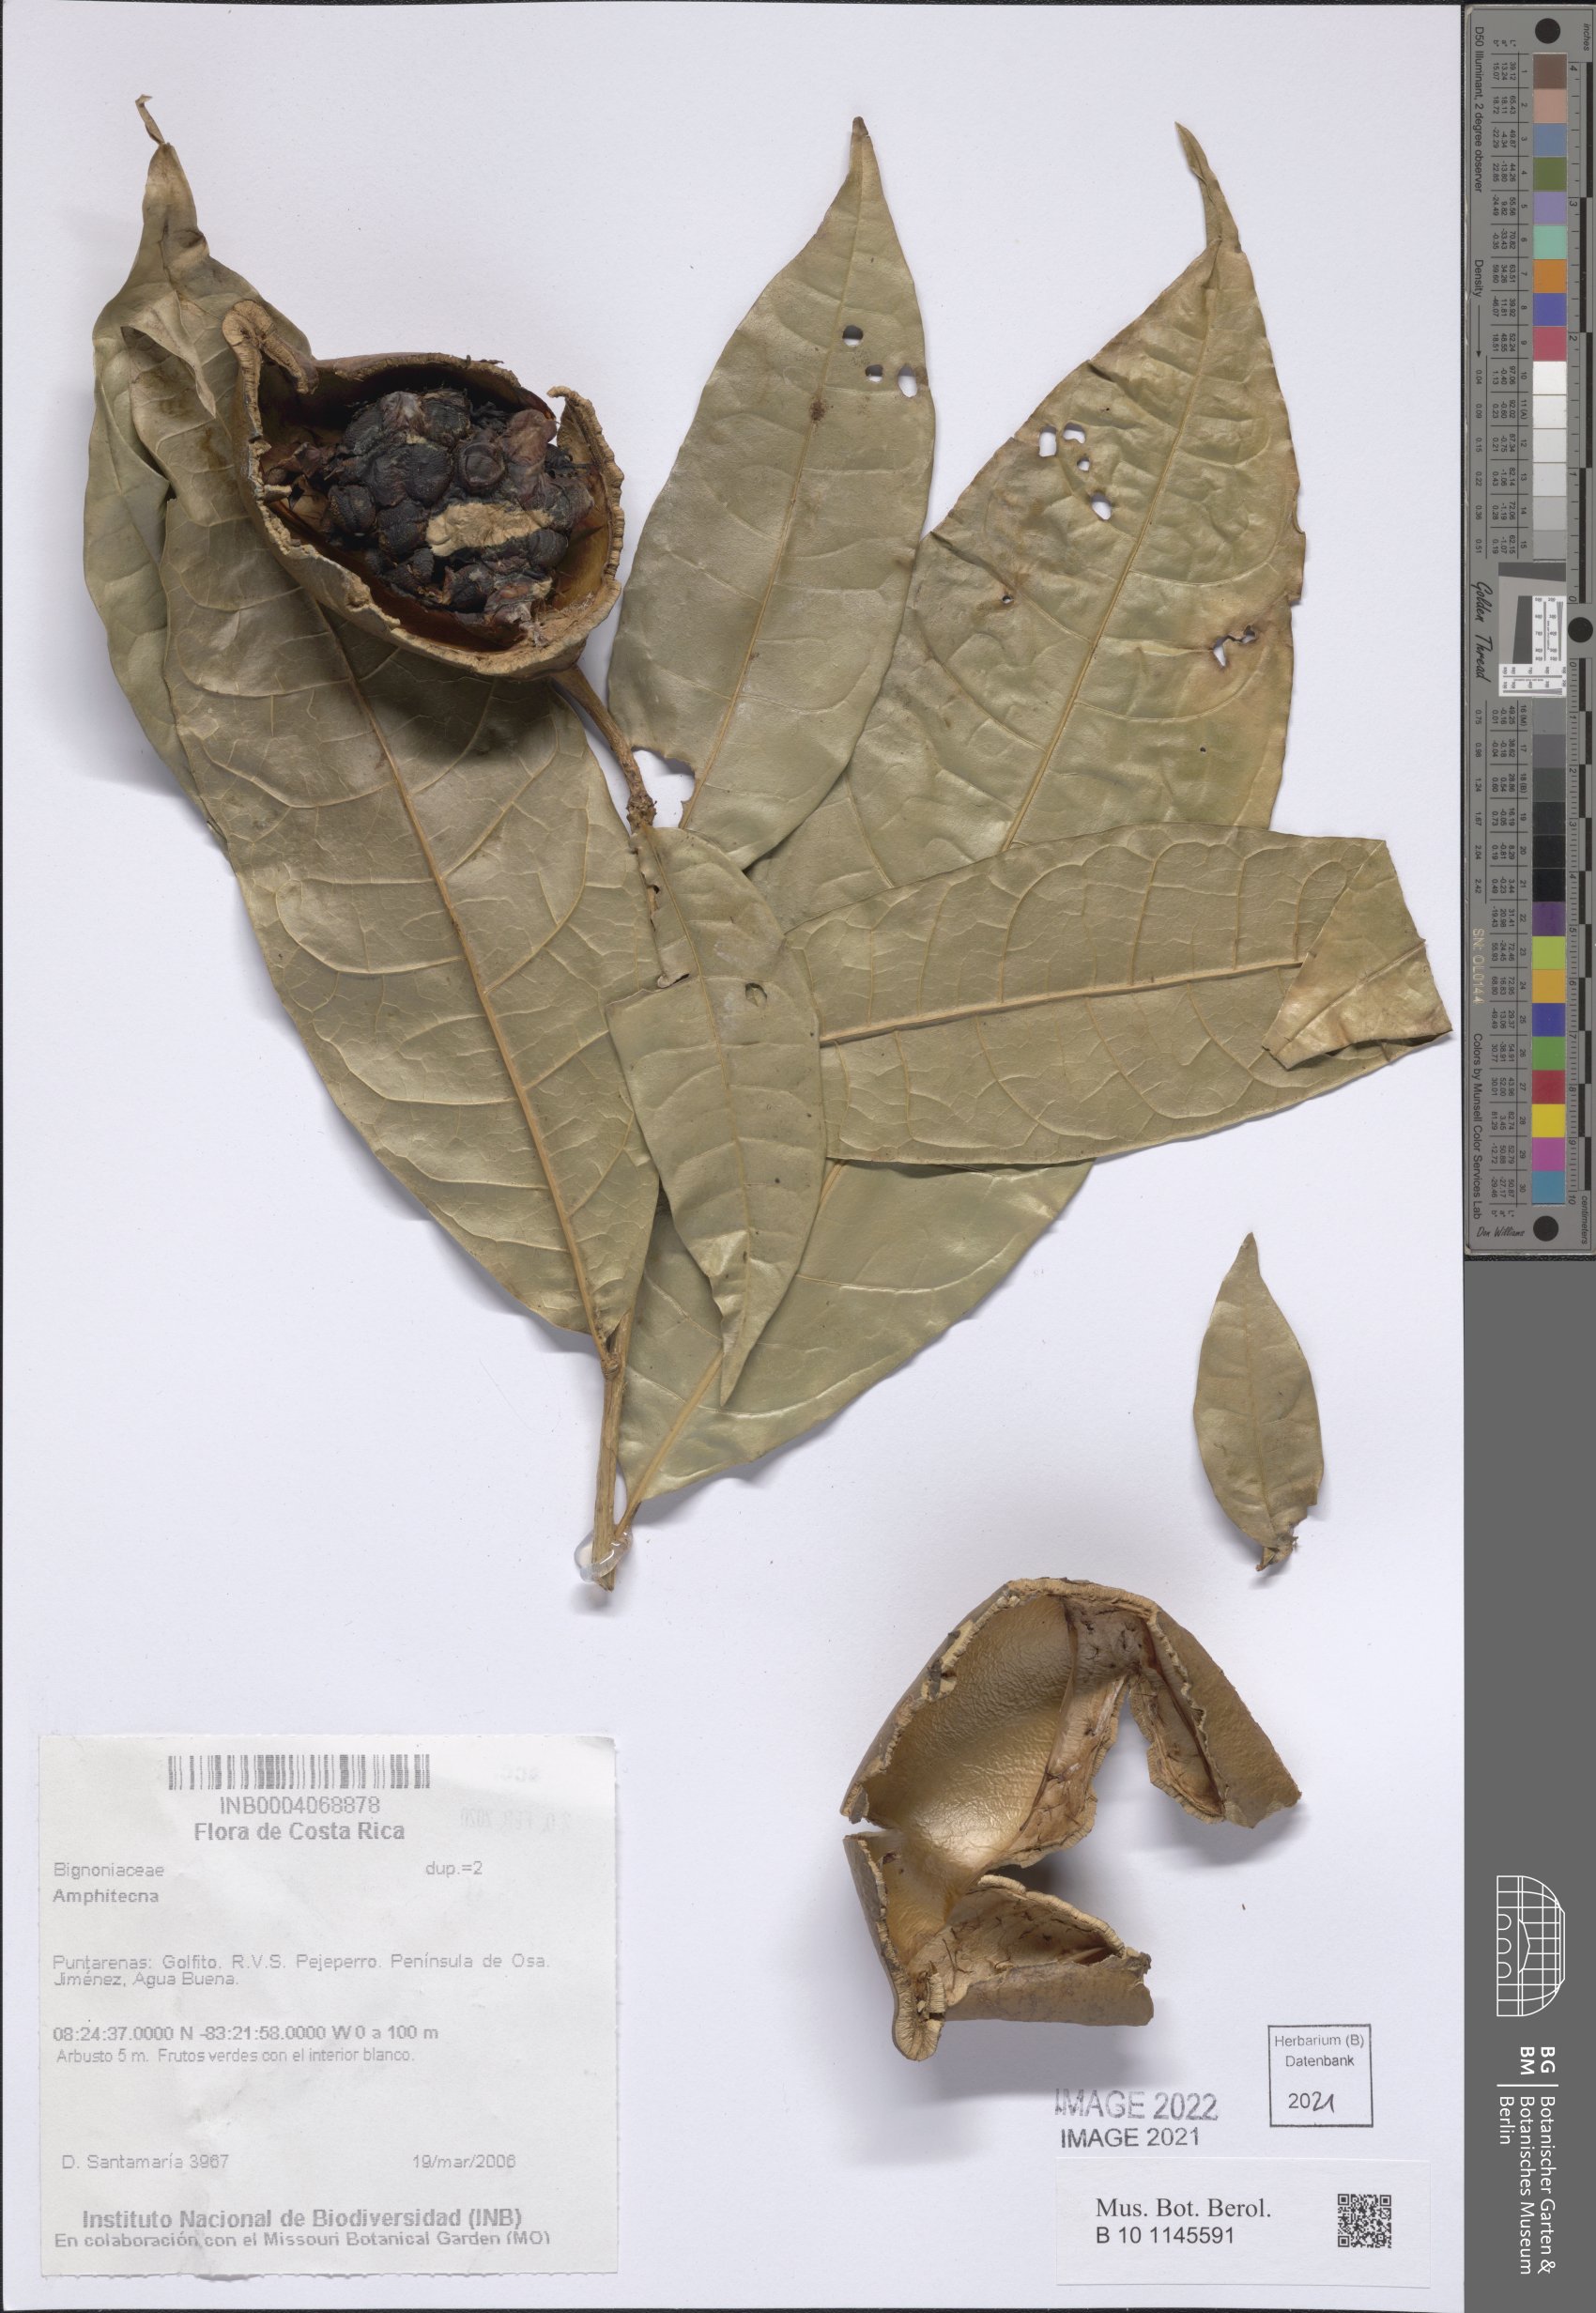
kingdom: Plantae
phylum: Tracheophyta
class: Magnoliopsida
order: Lamiales
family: Bignoniaceae
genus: Amphitecna
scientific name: Amphitecna
